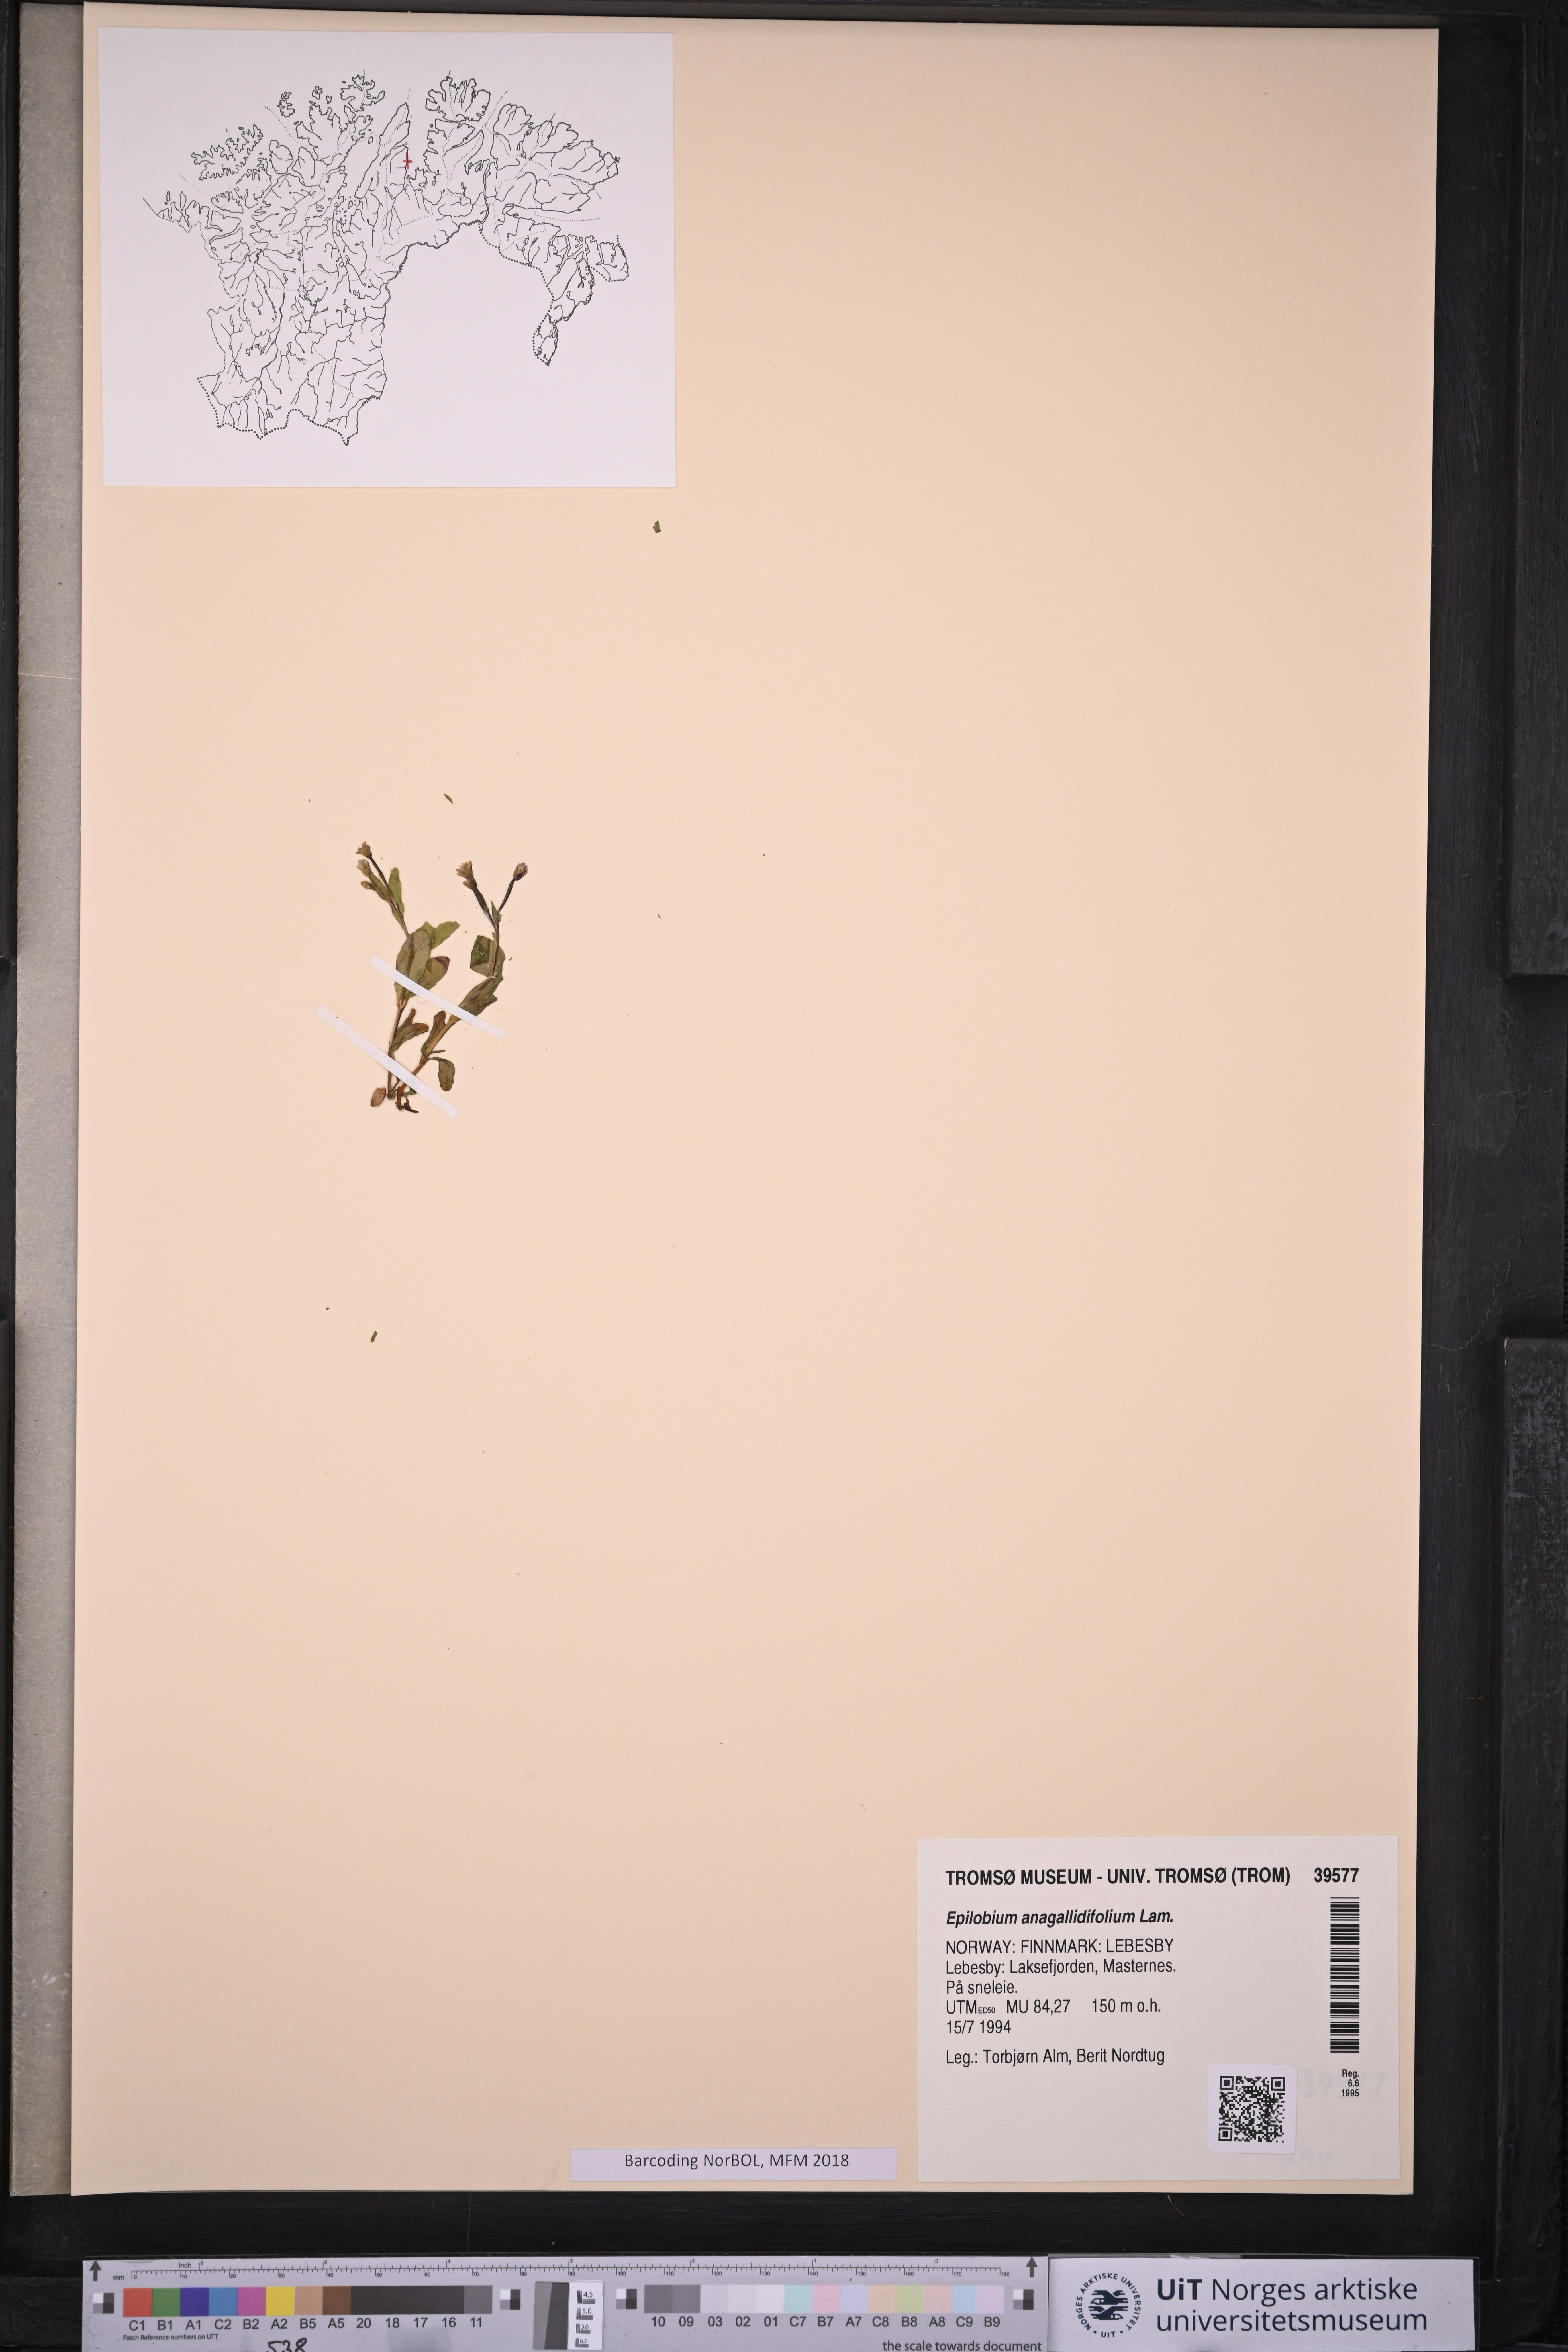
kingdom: Plantae
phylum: Tracheophyta
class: Magnoliopsida
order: Myrtales
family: Onagraceae
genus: Epilobium
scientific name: Epilobium anagallidifolium
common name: Alpine willowherb
